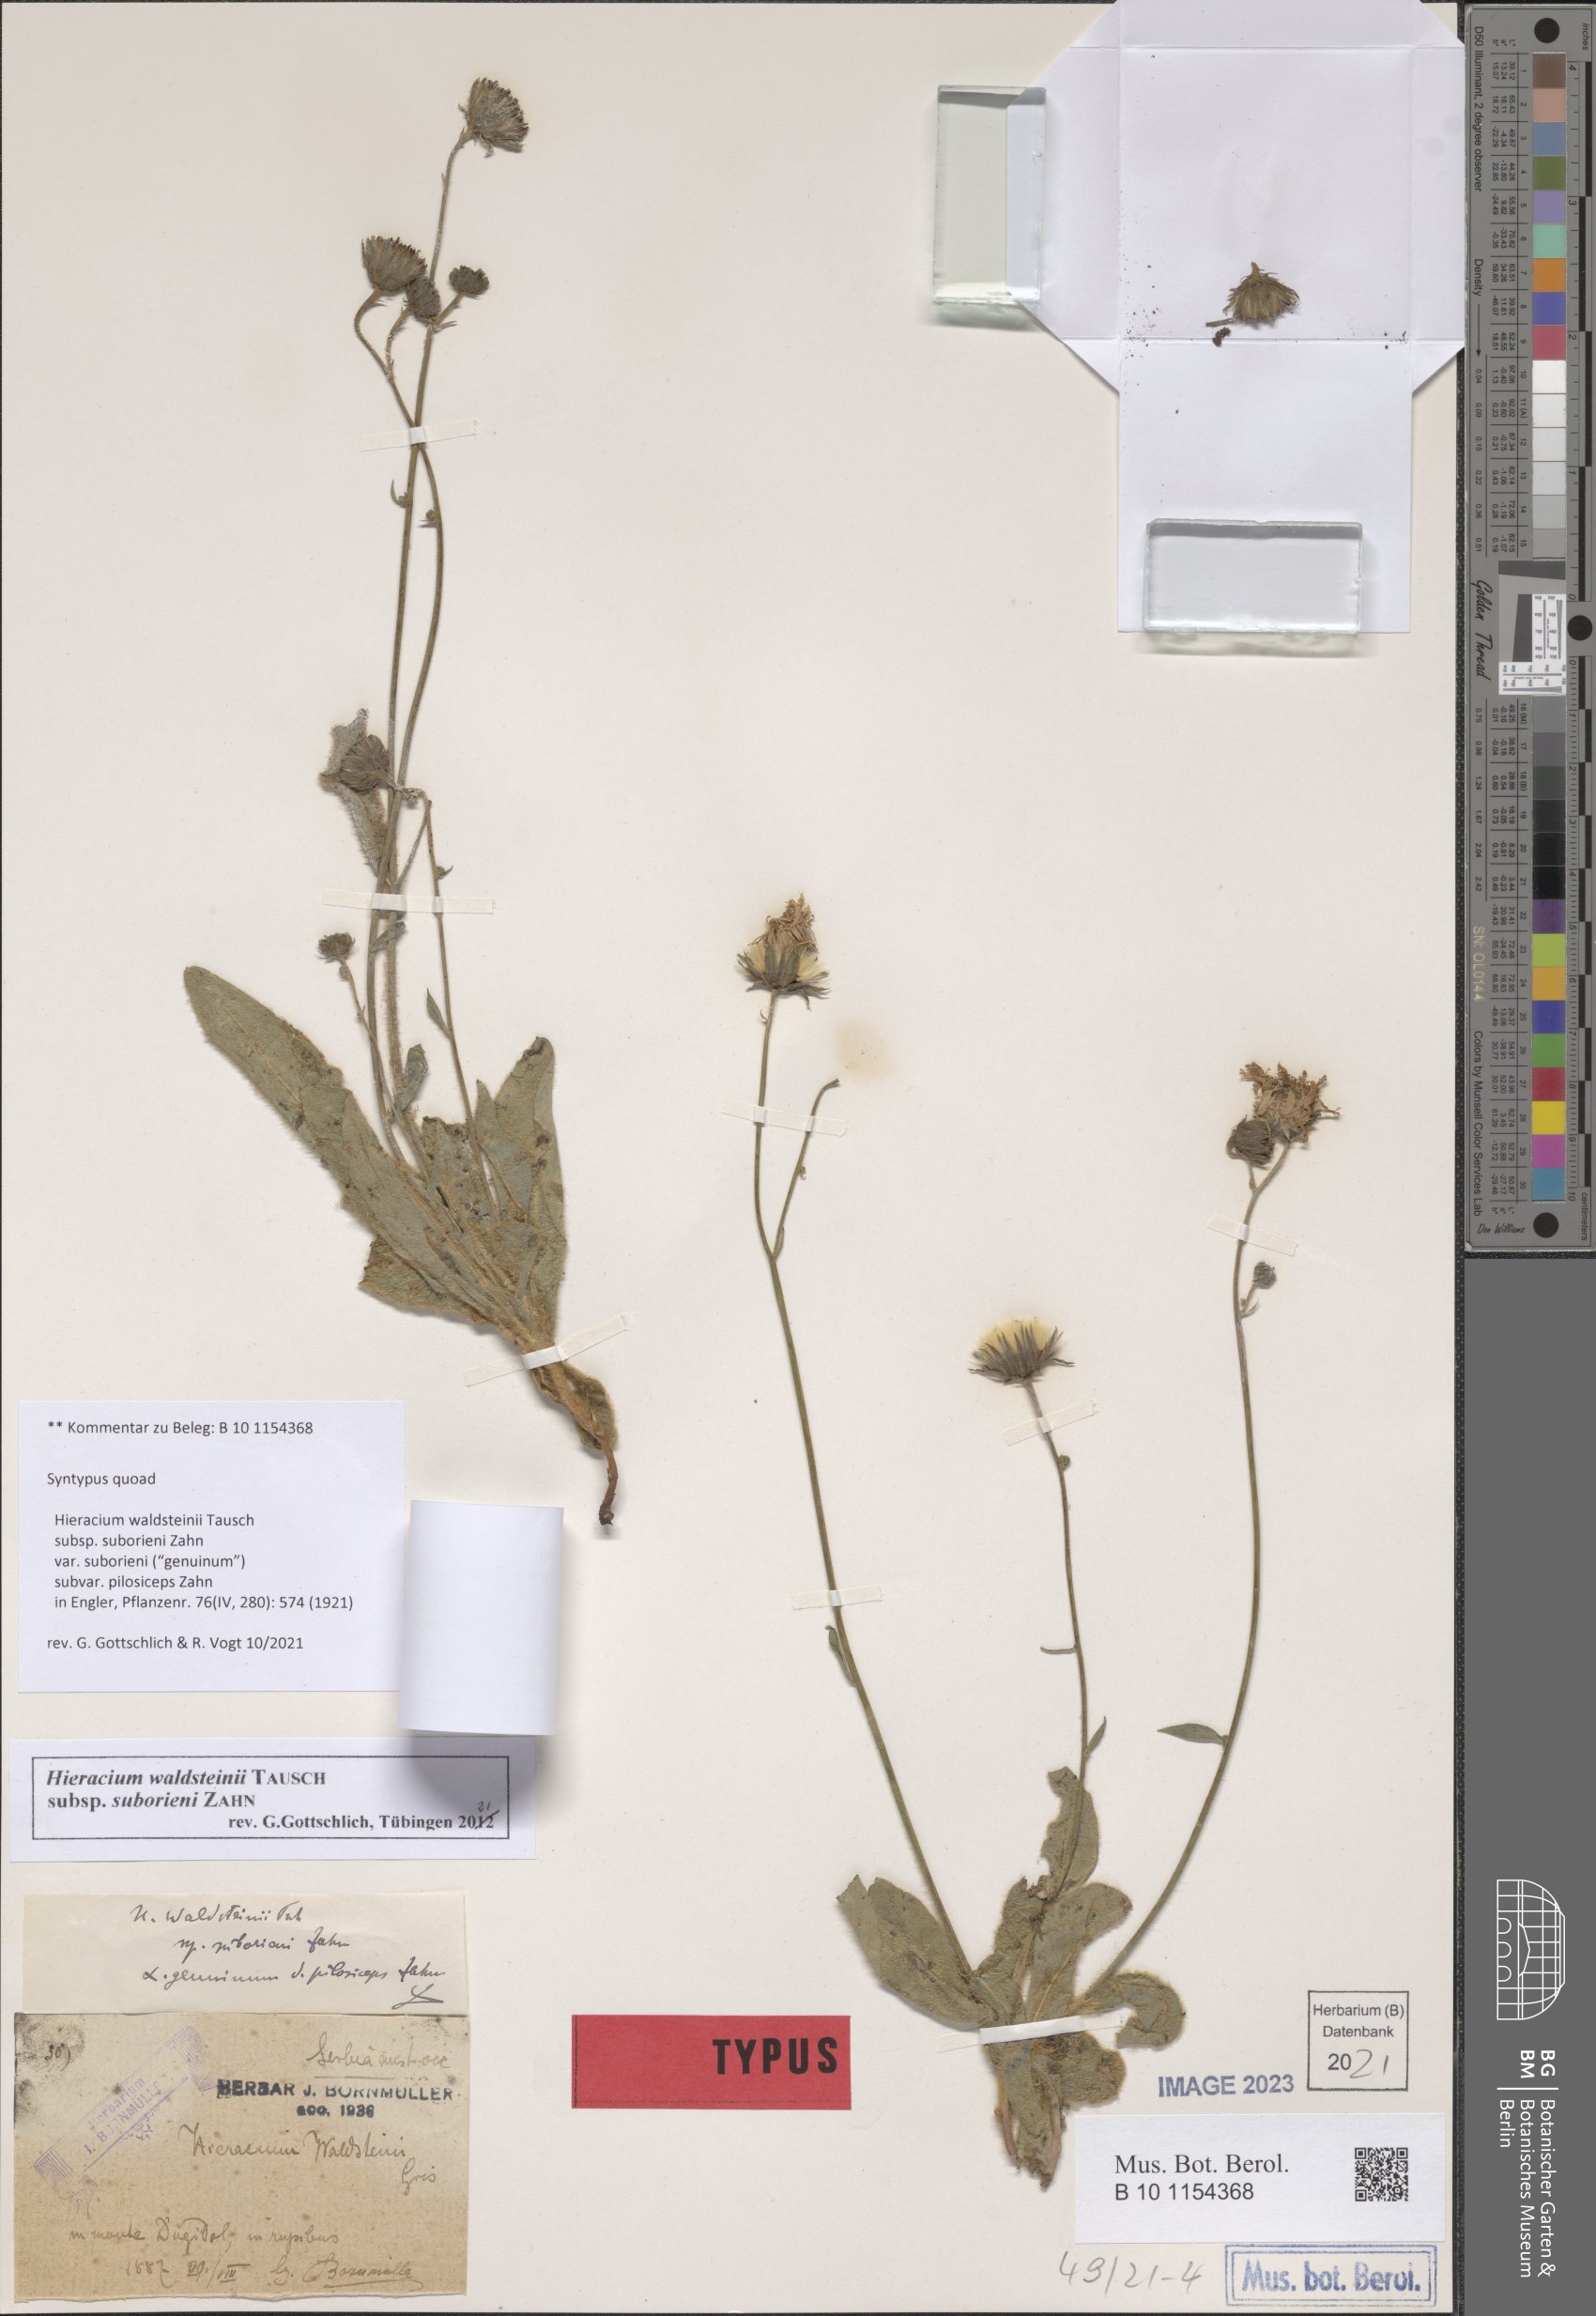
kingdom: Plantae
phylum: Tracheophyta
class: Magnoliopsida
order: Asterales
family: Asteraceae
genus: Hieracium
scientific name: Hieracium waldsteinii
